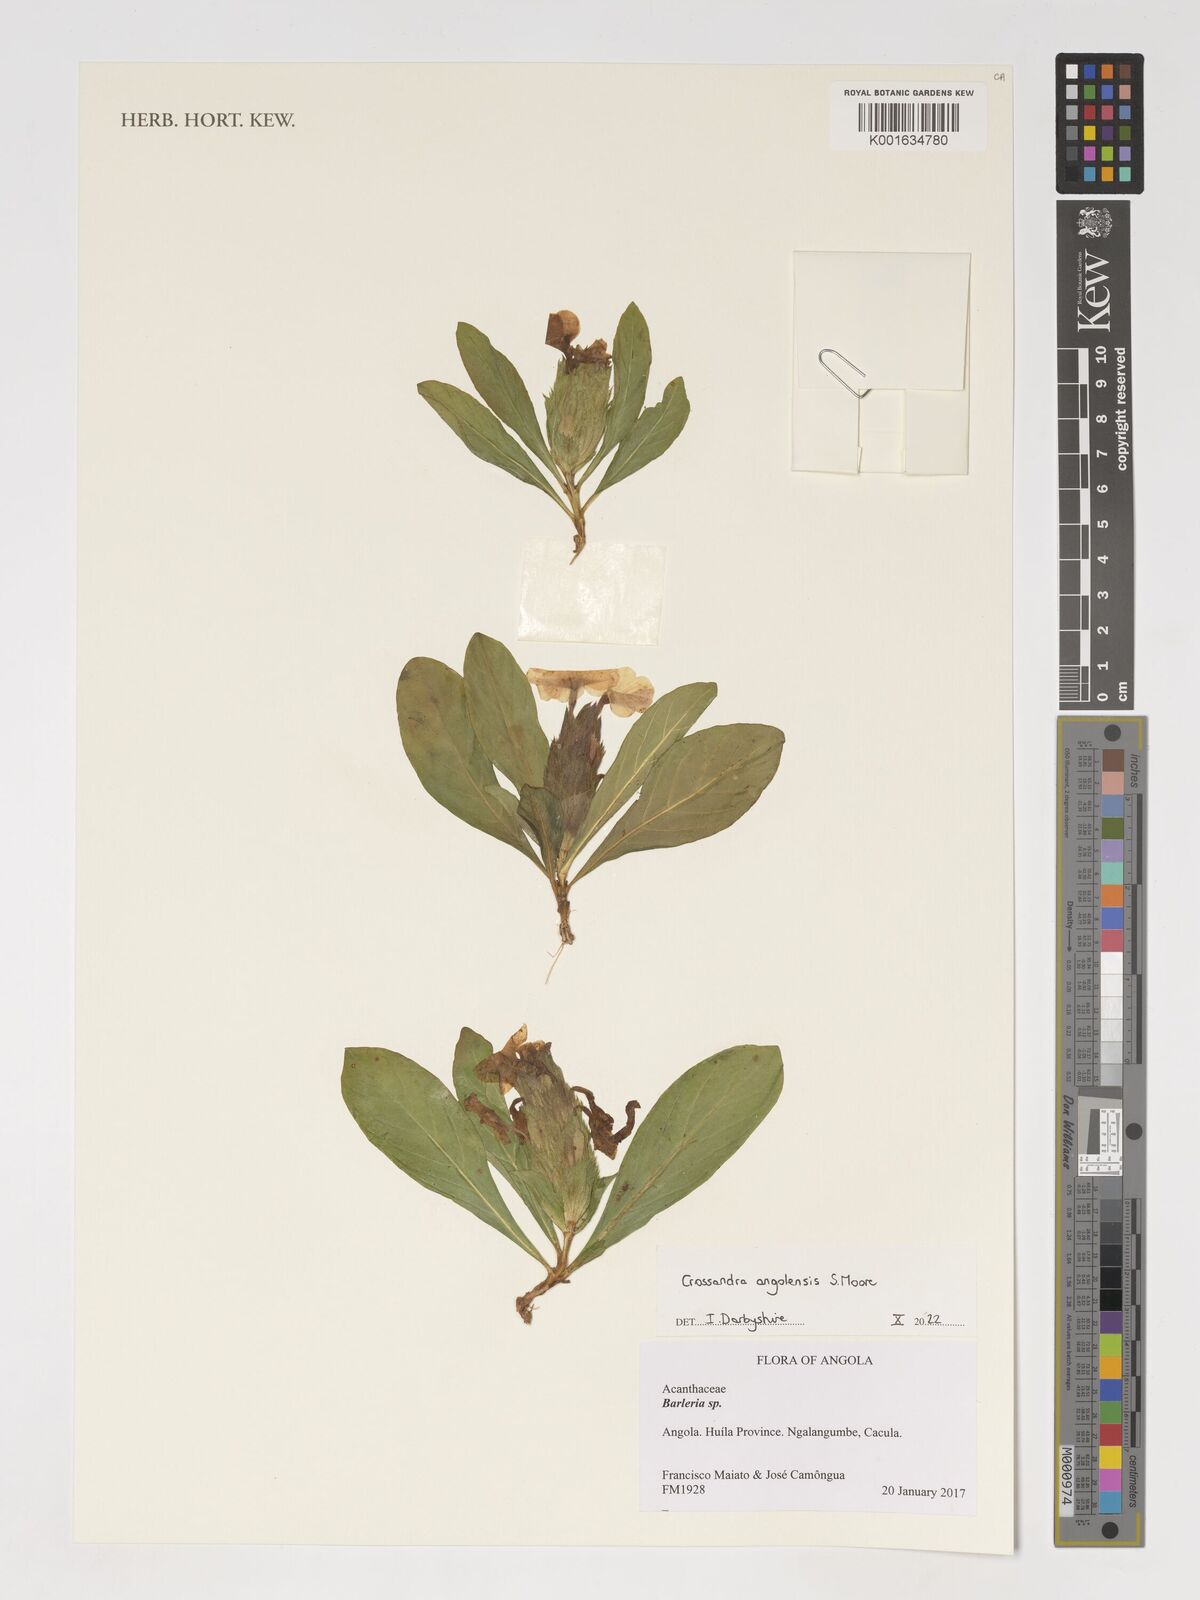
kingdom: Plantae
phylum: Tracheophyta
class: Magnoliopsida
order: Lamiales
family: Acanthaceae
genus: Crossandra
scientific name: Crossandra angolensis
